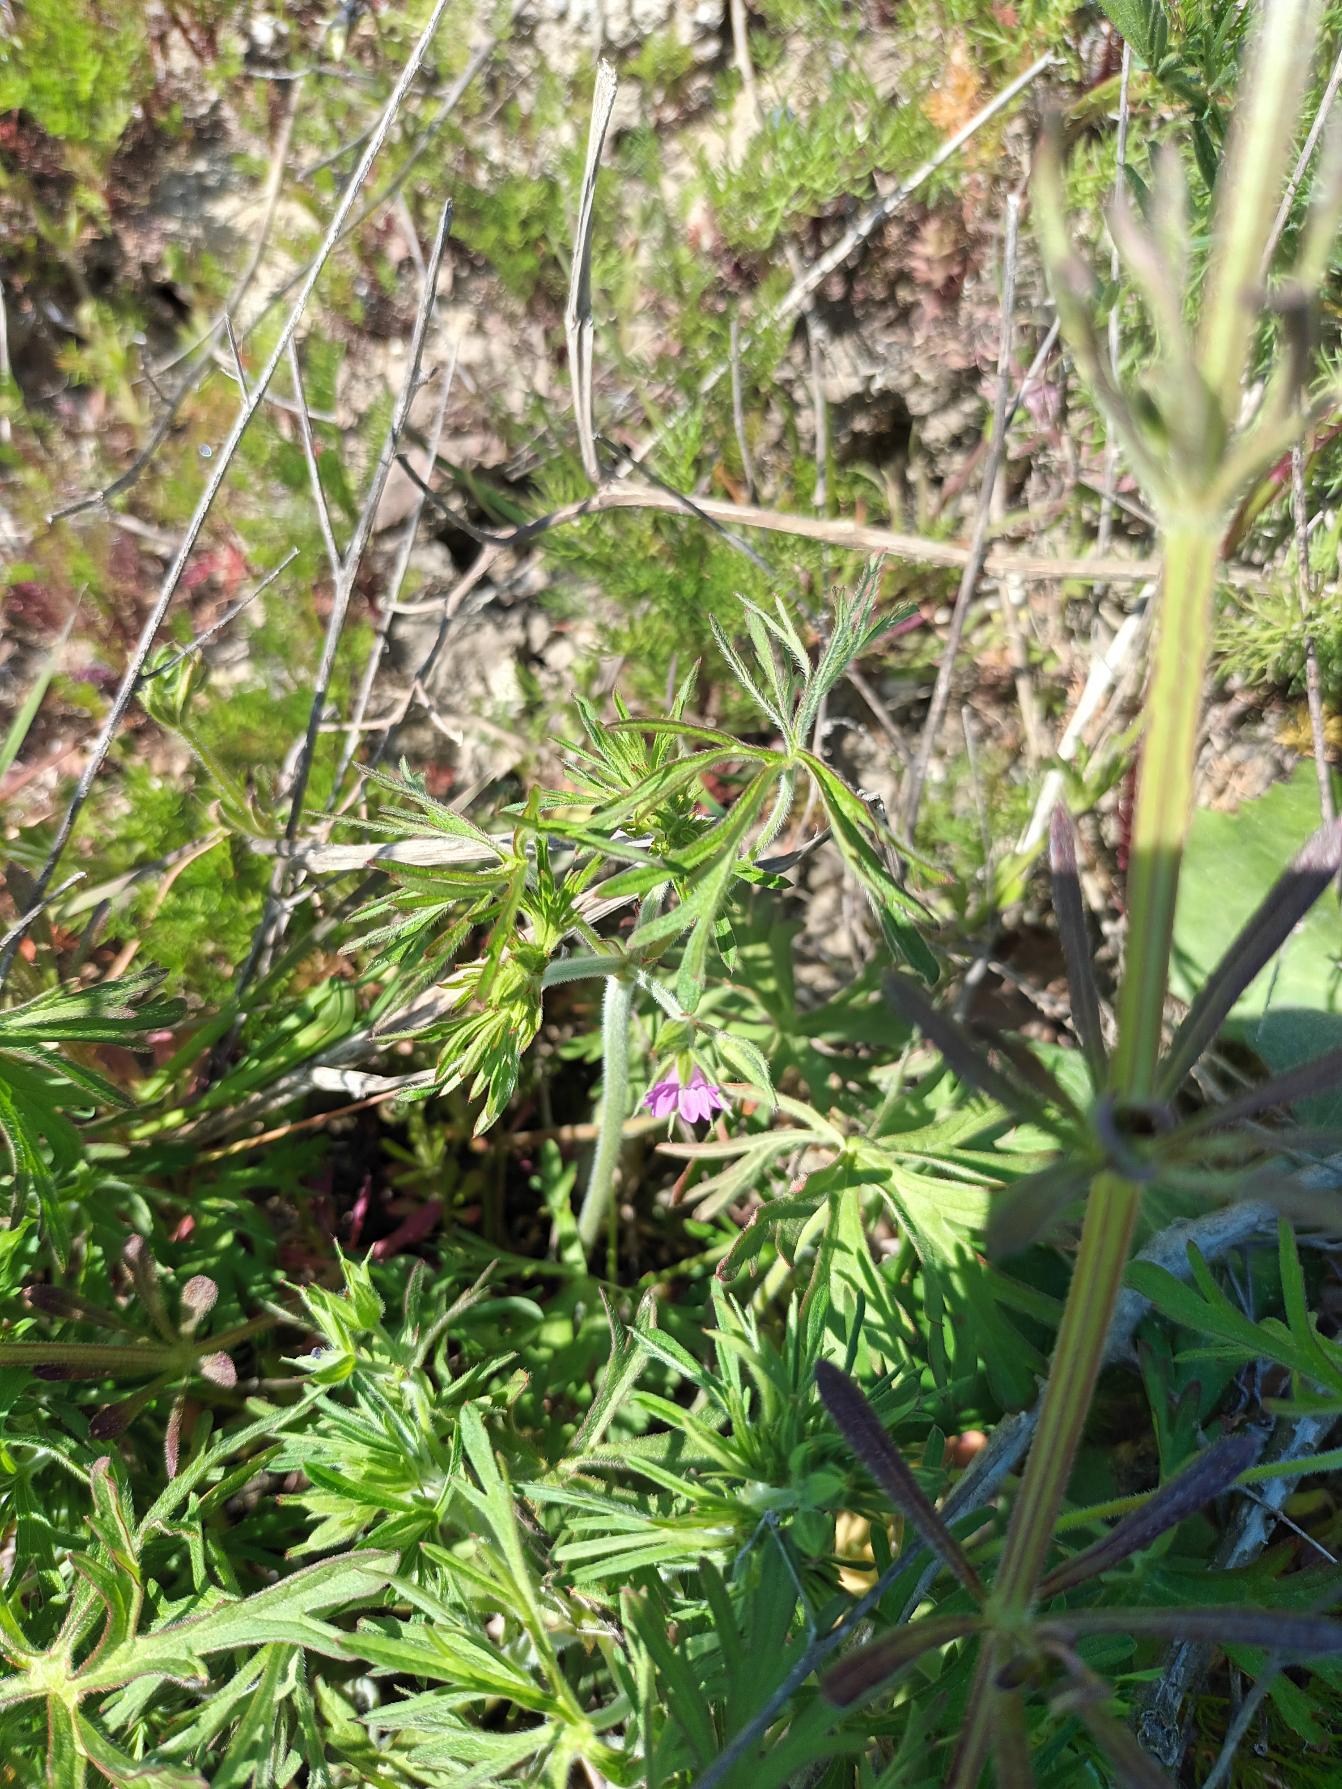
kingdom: Plantae
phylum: Tracheophyta
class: Magnoliopsida
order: Geraniales
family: Geraniaceae
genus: Geranium
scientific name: Geranium dissectum
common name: Kløftet storkenæb
